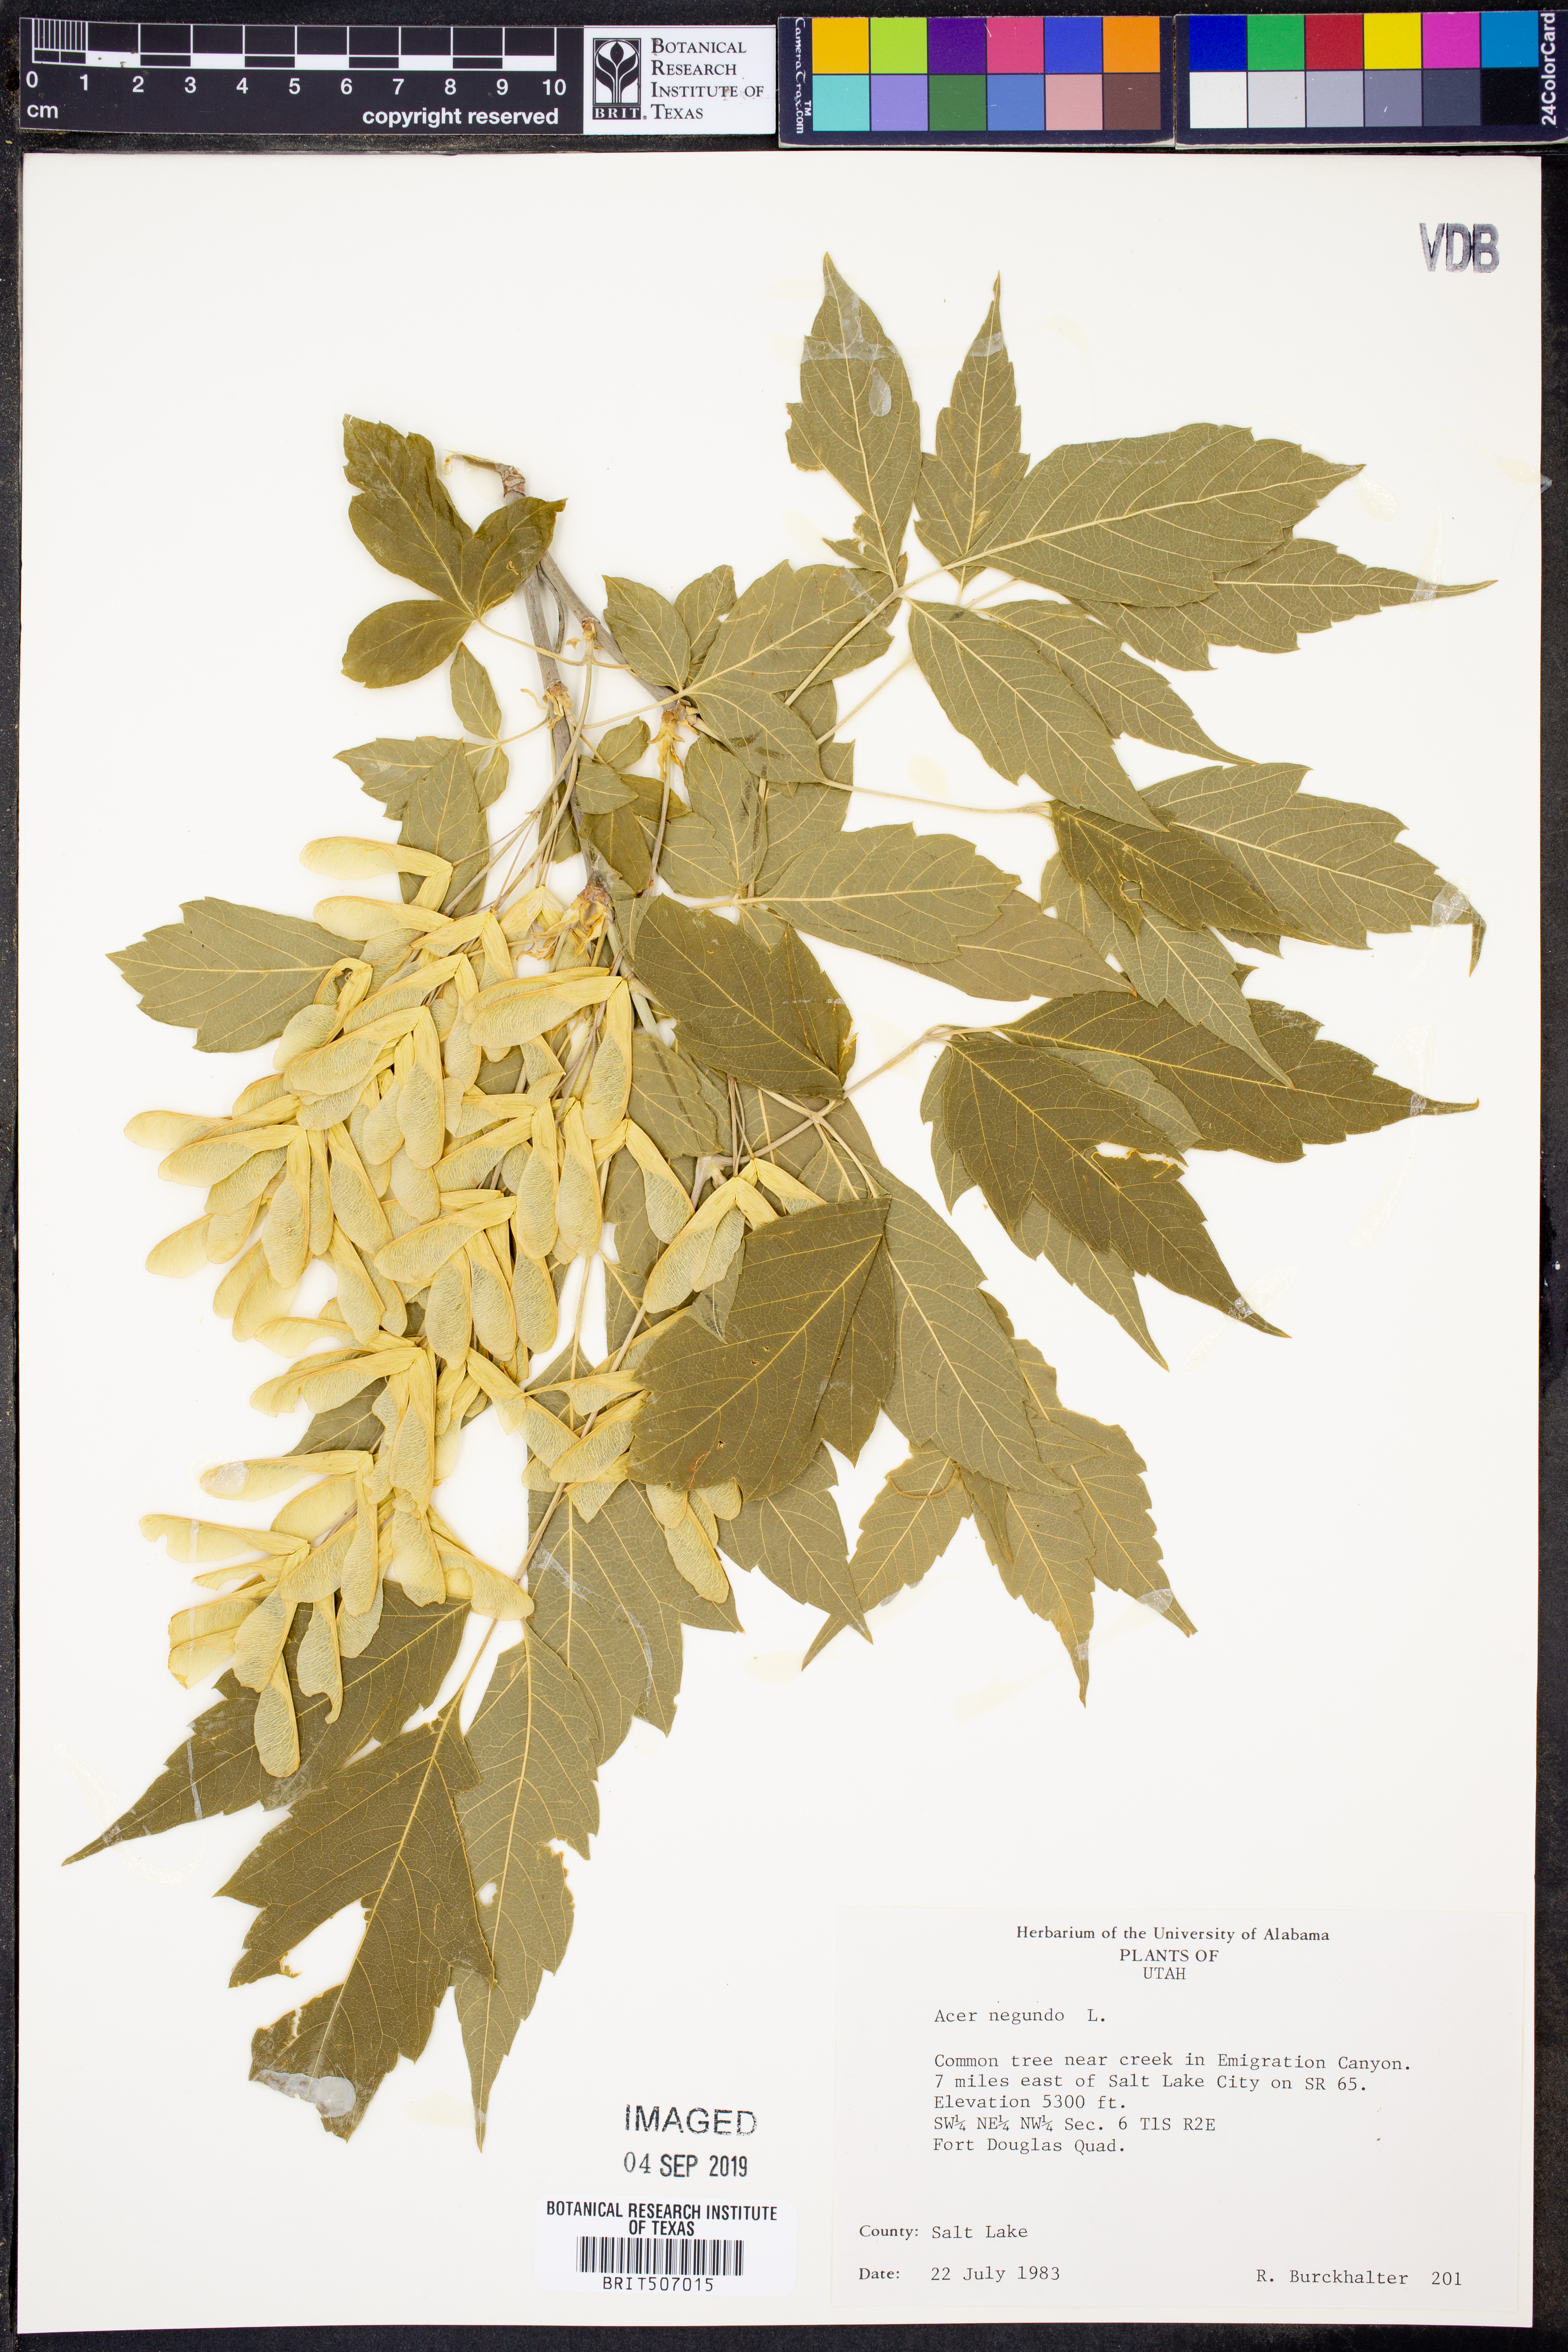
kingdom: Plantae
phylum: Tracheophyta
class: Magnoliopsida
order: Sapindales
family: Sapindaceae
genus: Acer
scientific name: Acer negundo
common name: Ashleaf maple
